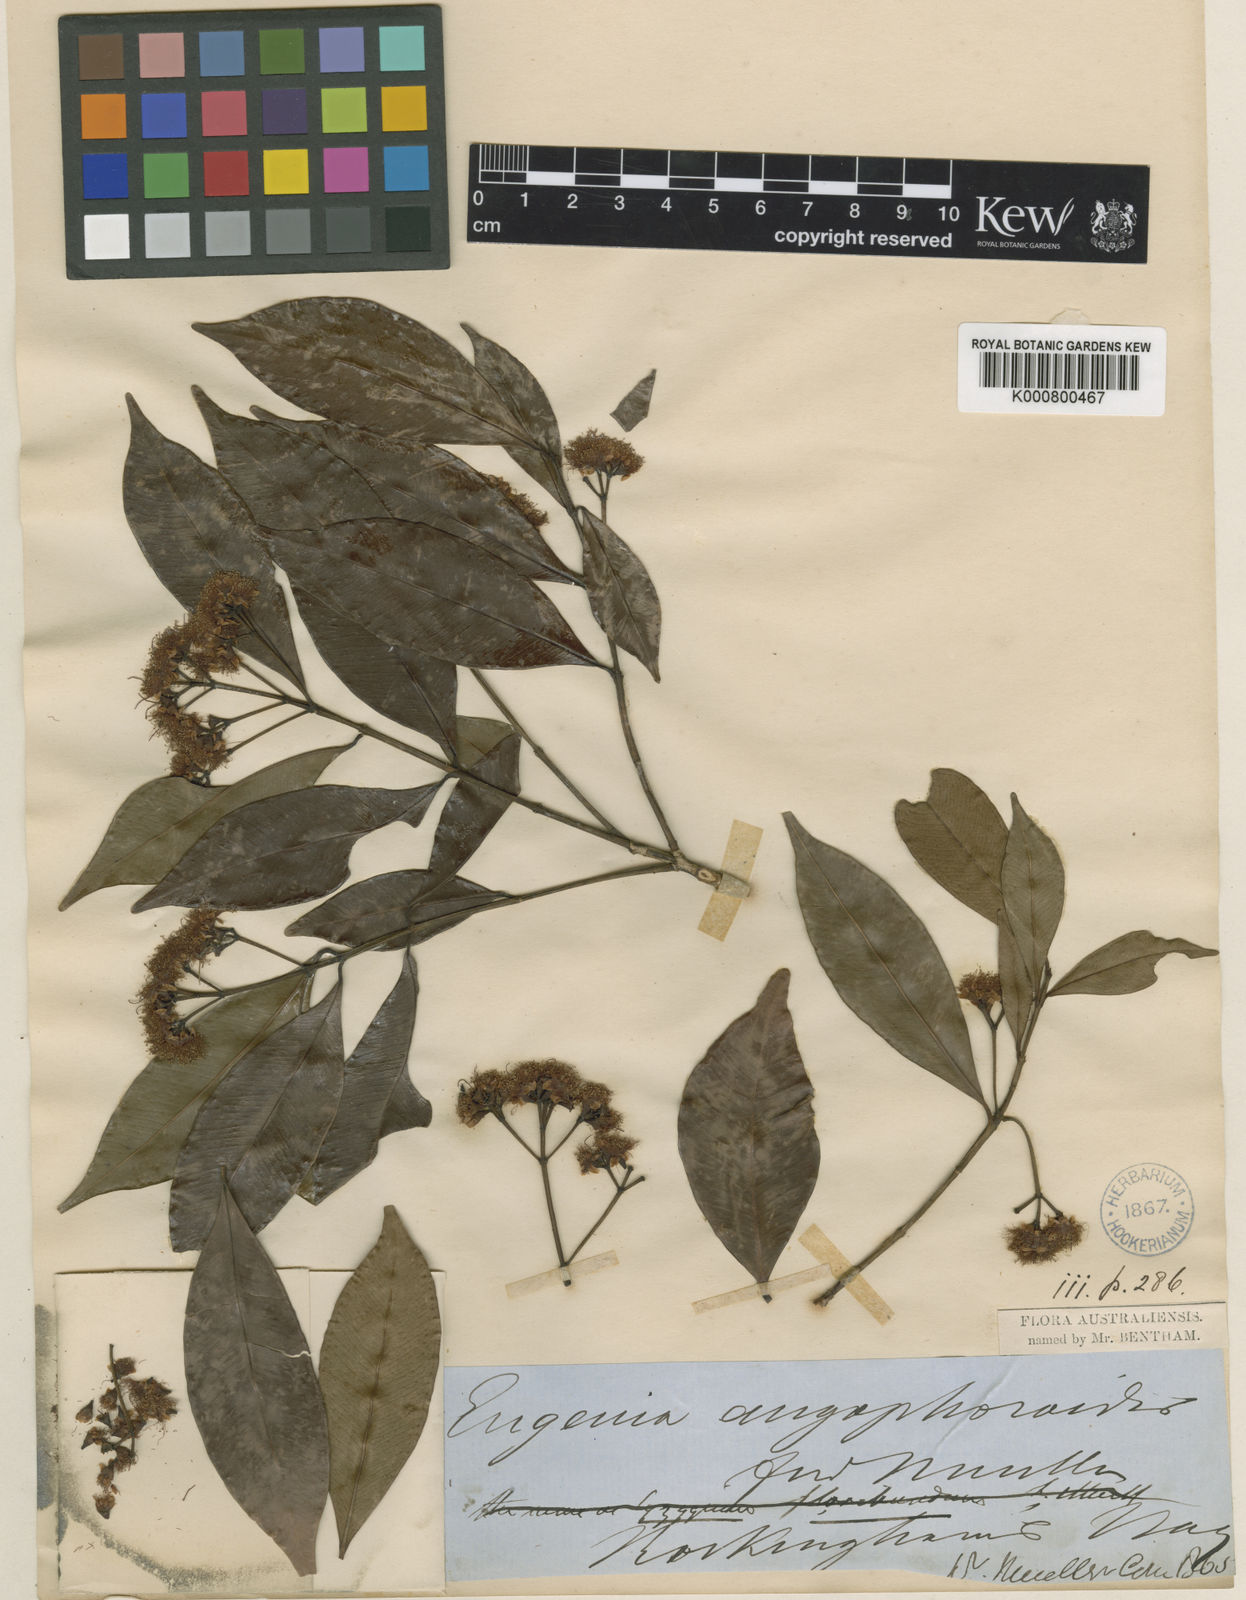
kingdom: Plantae
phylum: Tracheophyta
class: Magnoliopsida
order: Myrtales
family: Myrtaceae
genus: Syzygium
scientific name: Syzygium angophoroides
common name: Swamp satinash
